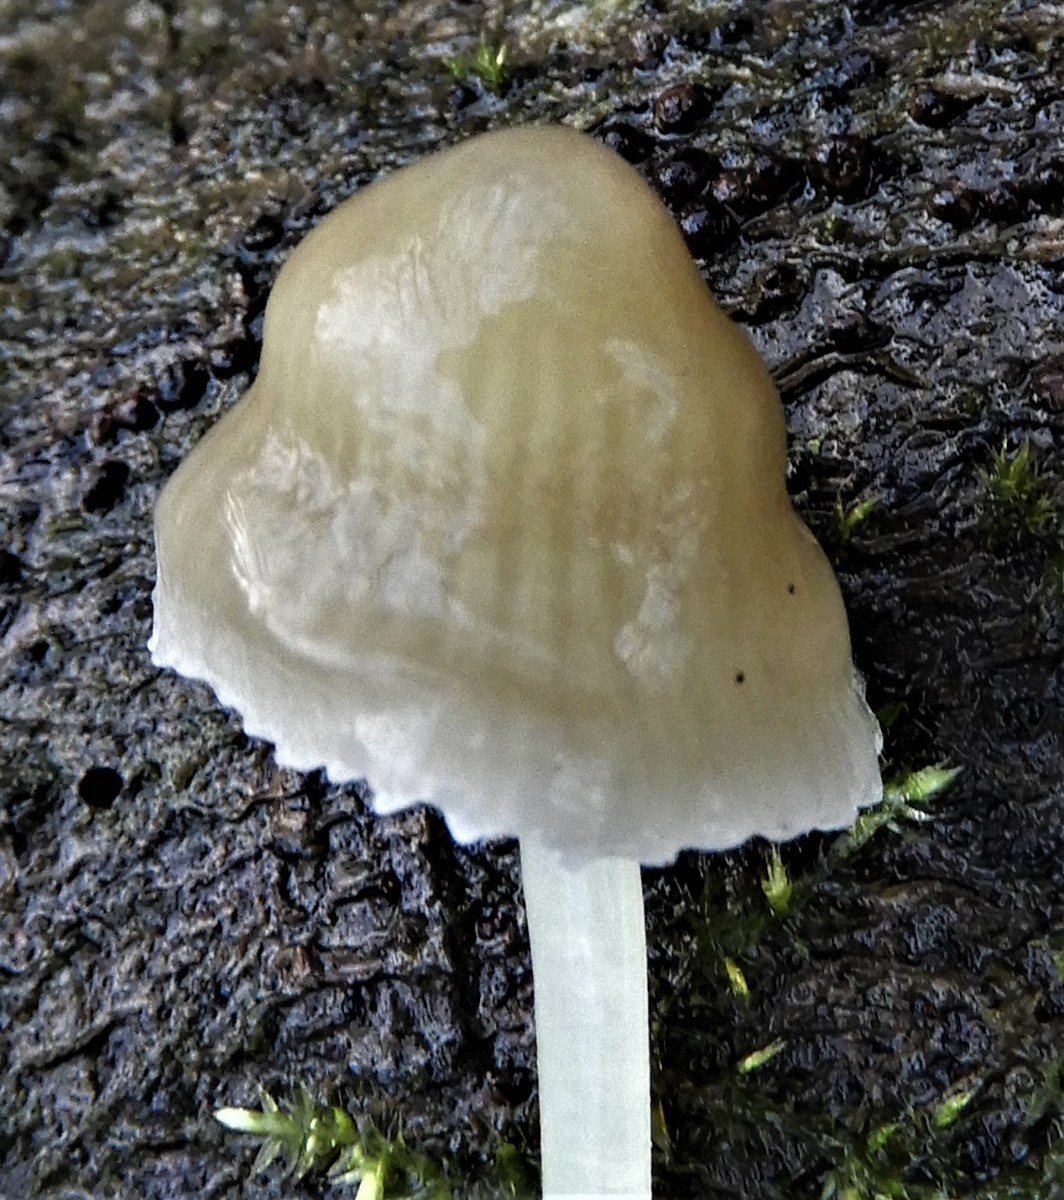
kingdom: Fungi
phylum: Basidiomycota
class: Agaricomycetes
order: Agaricales
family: Mycenaceae
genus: Mycena
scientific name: Mycena epipterygia
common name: gulstokket huesvamp
